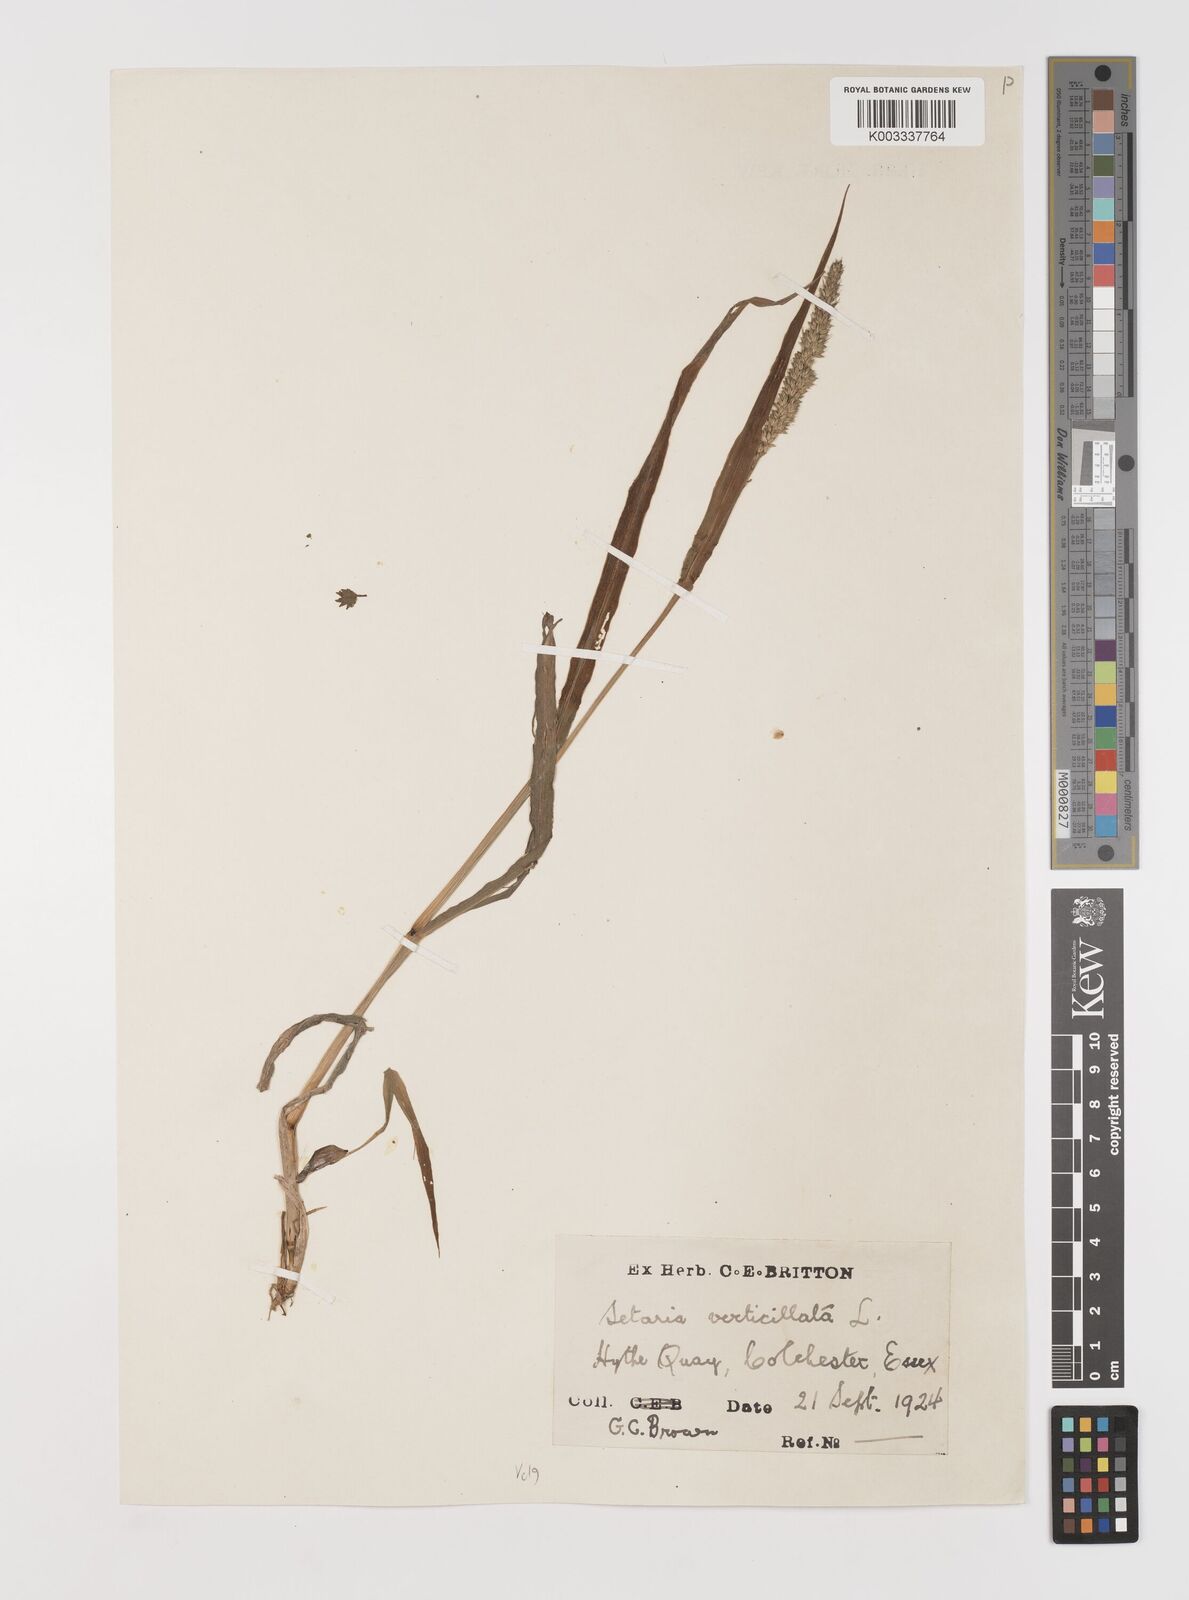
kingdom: Plantae
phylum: Tracheophyta
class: Liliopsida
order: Poales
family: Poaceae
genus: Setaria
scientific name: Setaria viridis
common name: Green bristlegrass
